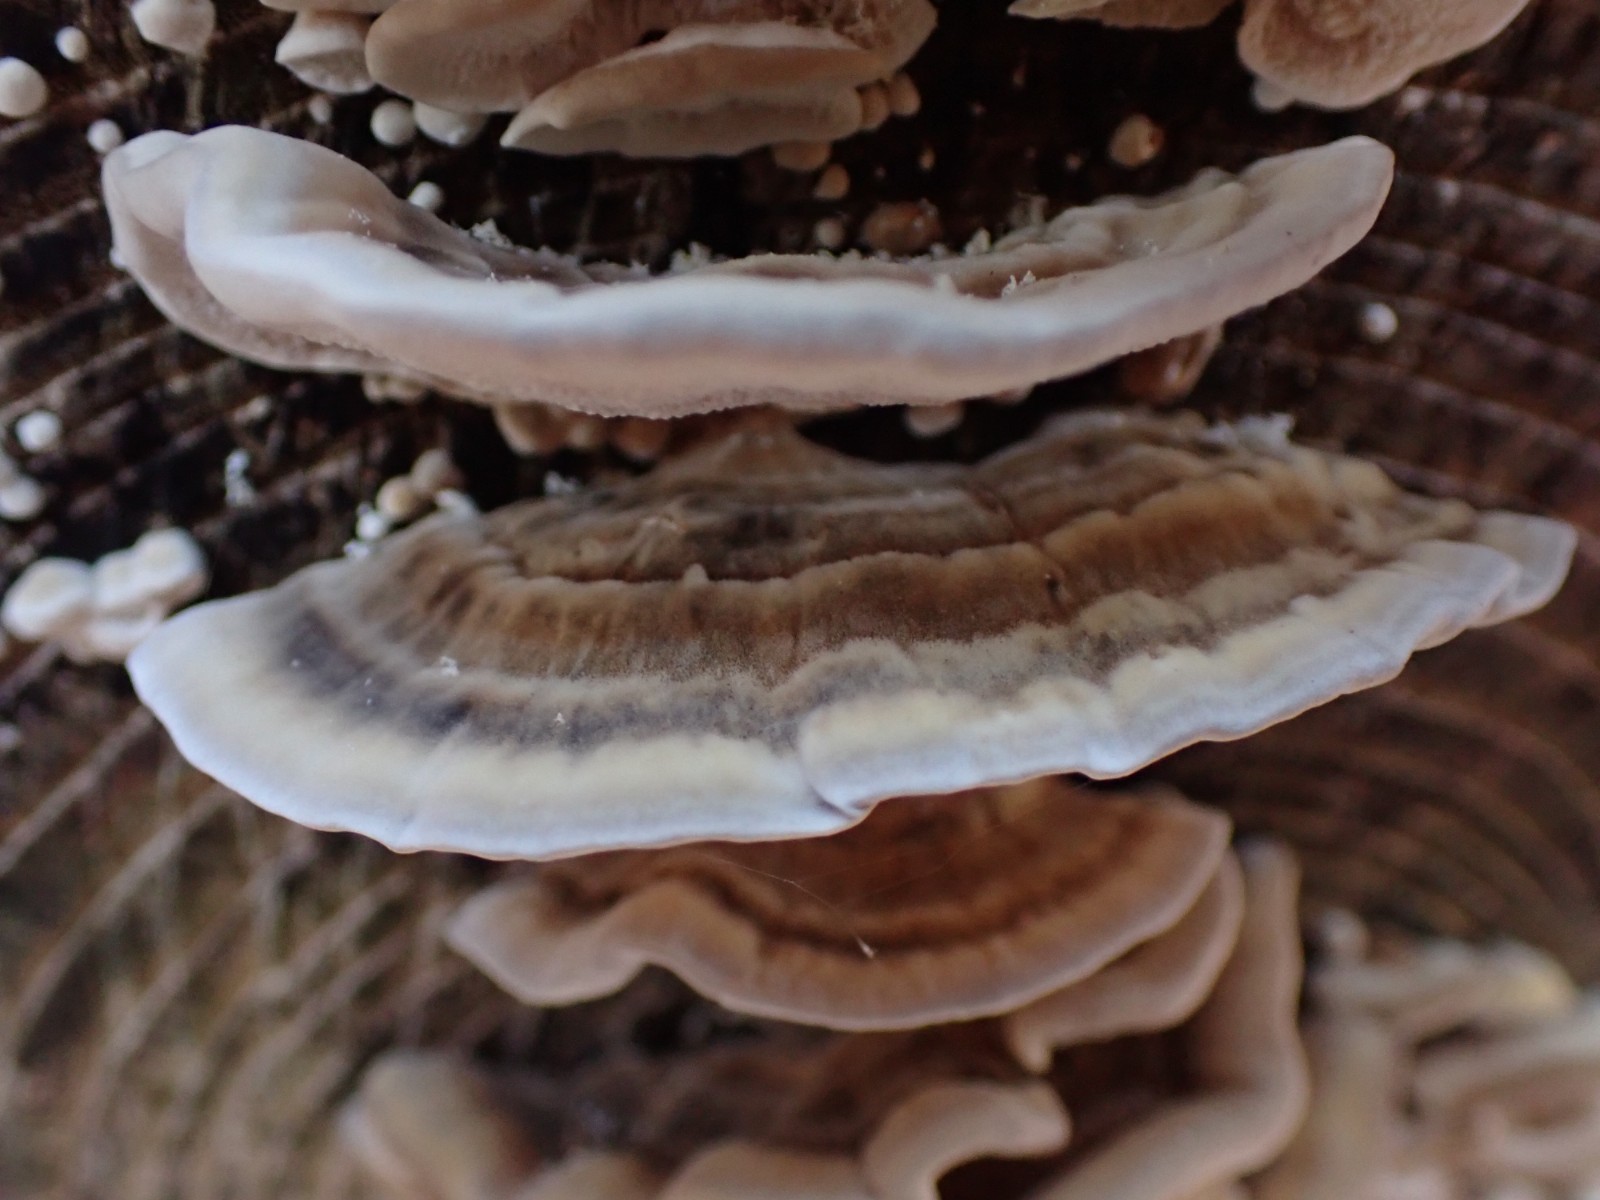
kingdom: Fungi
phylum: Basidiomycota
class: Agaricomycetes
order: Polyporales
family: Polyporaceae
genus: Trametes
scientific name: Trametes
